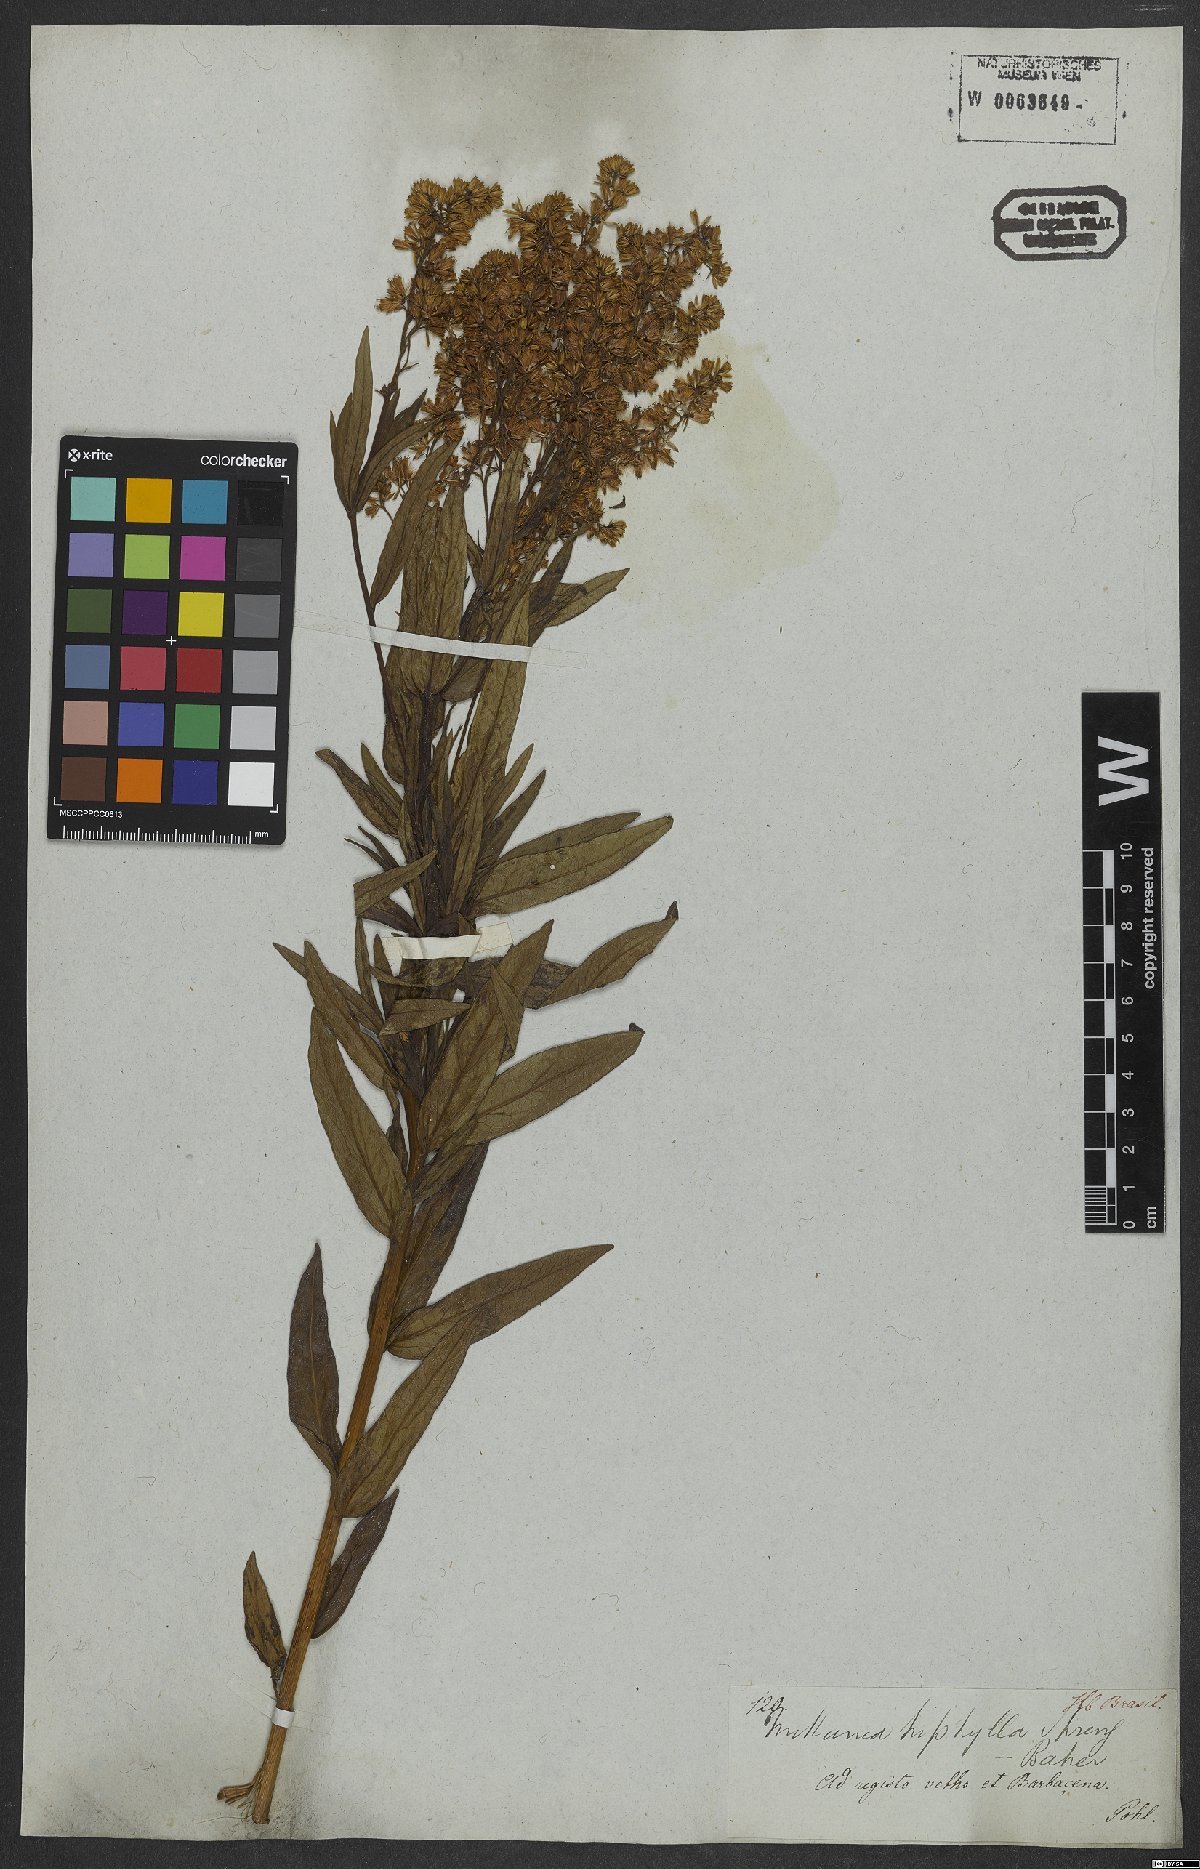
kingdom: Plantae
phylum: Tracheophyta
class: Magnoliopsida
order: Asterales
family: Asteraceae
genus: Mikania
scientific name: Mikania triphylla
